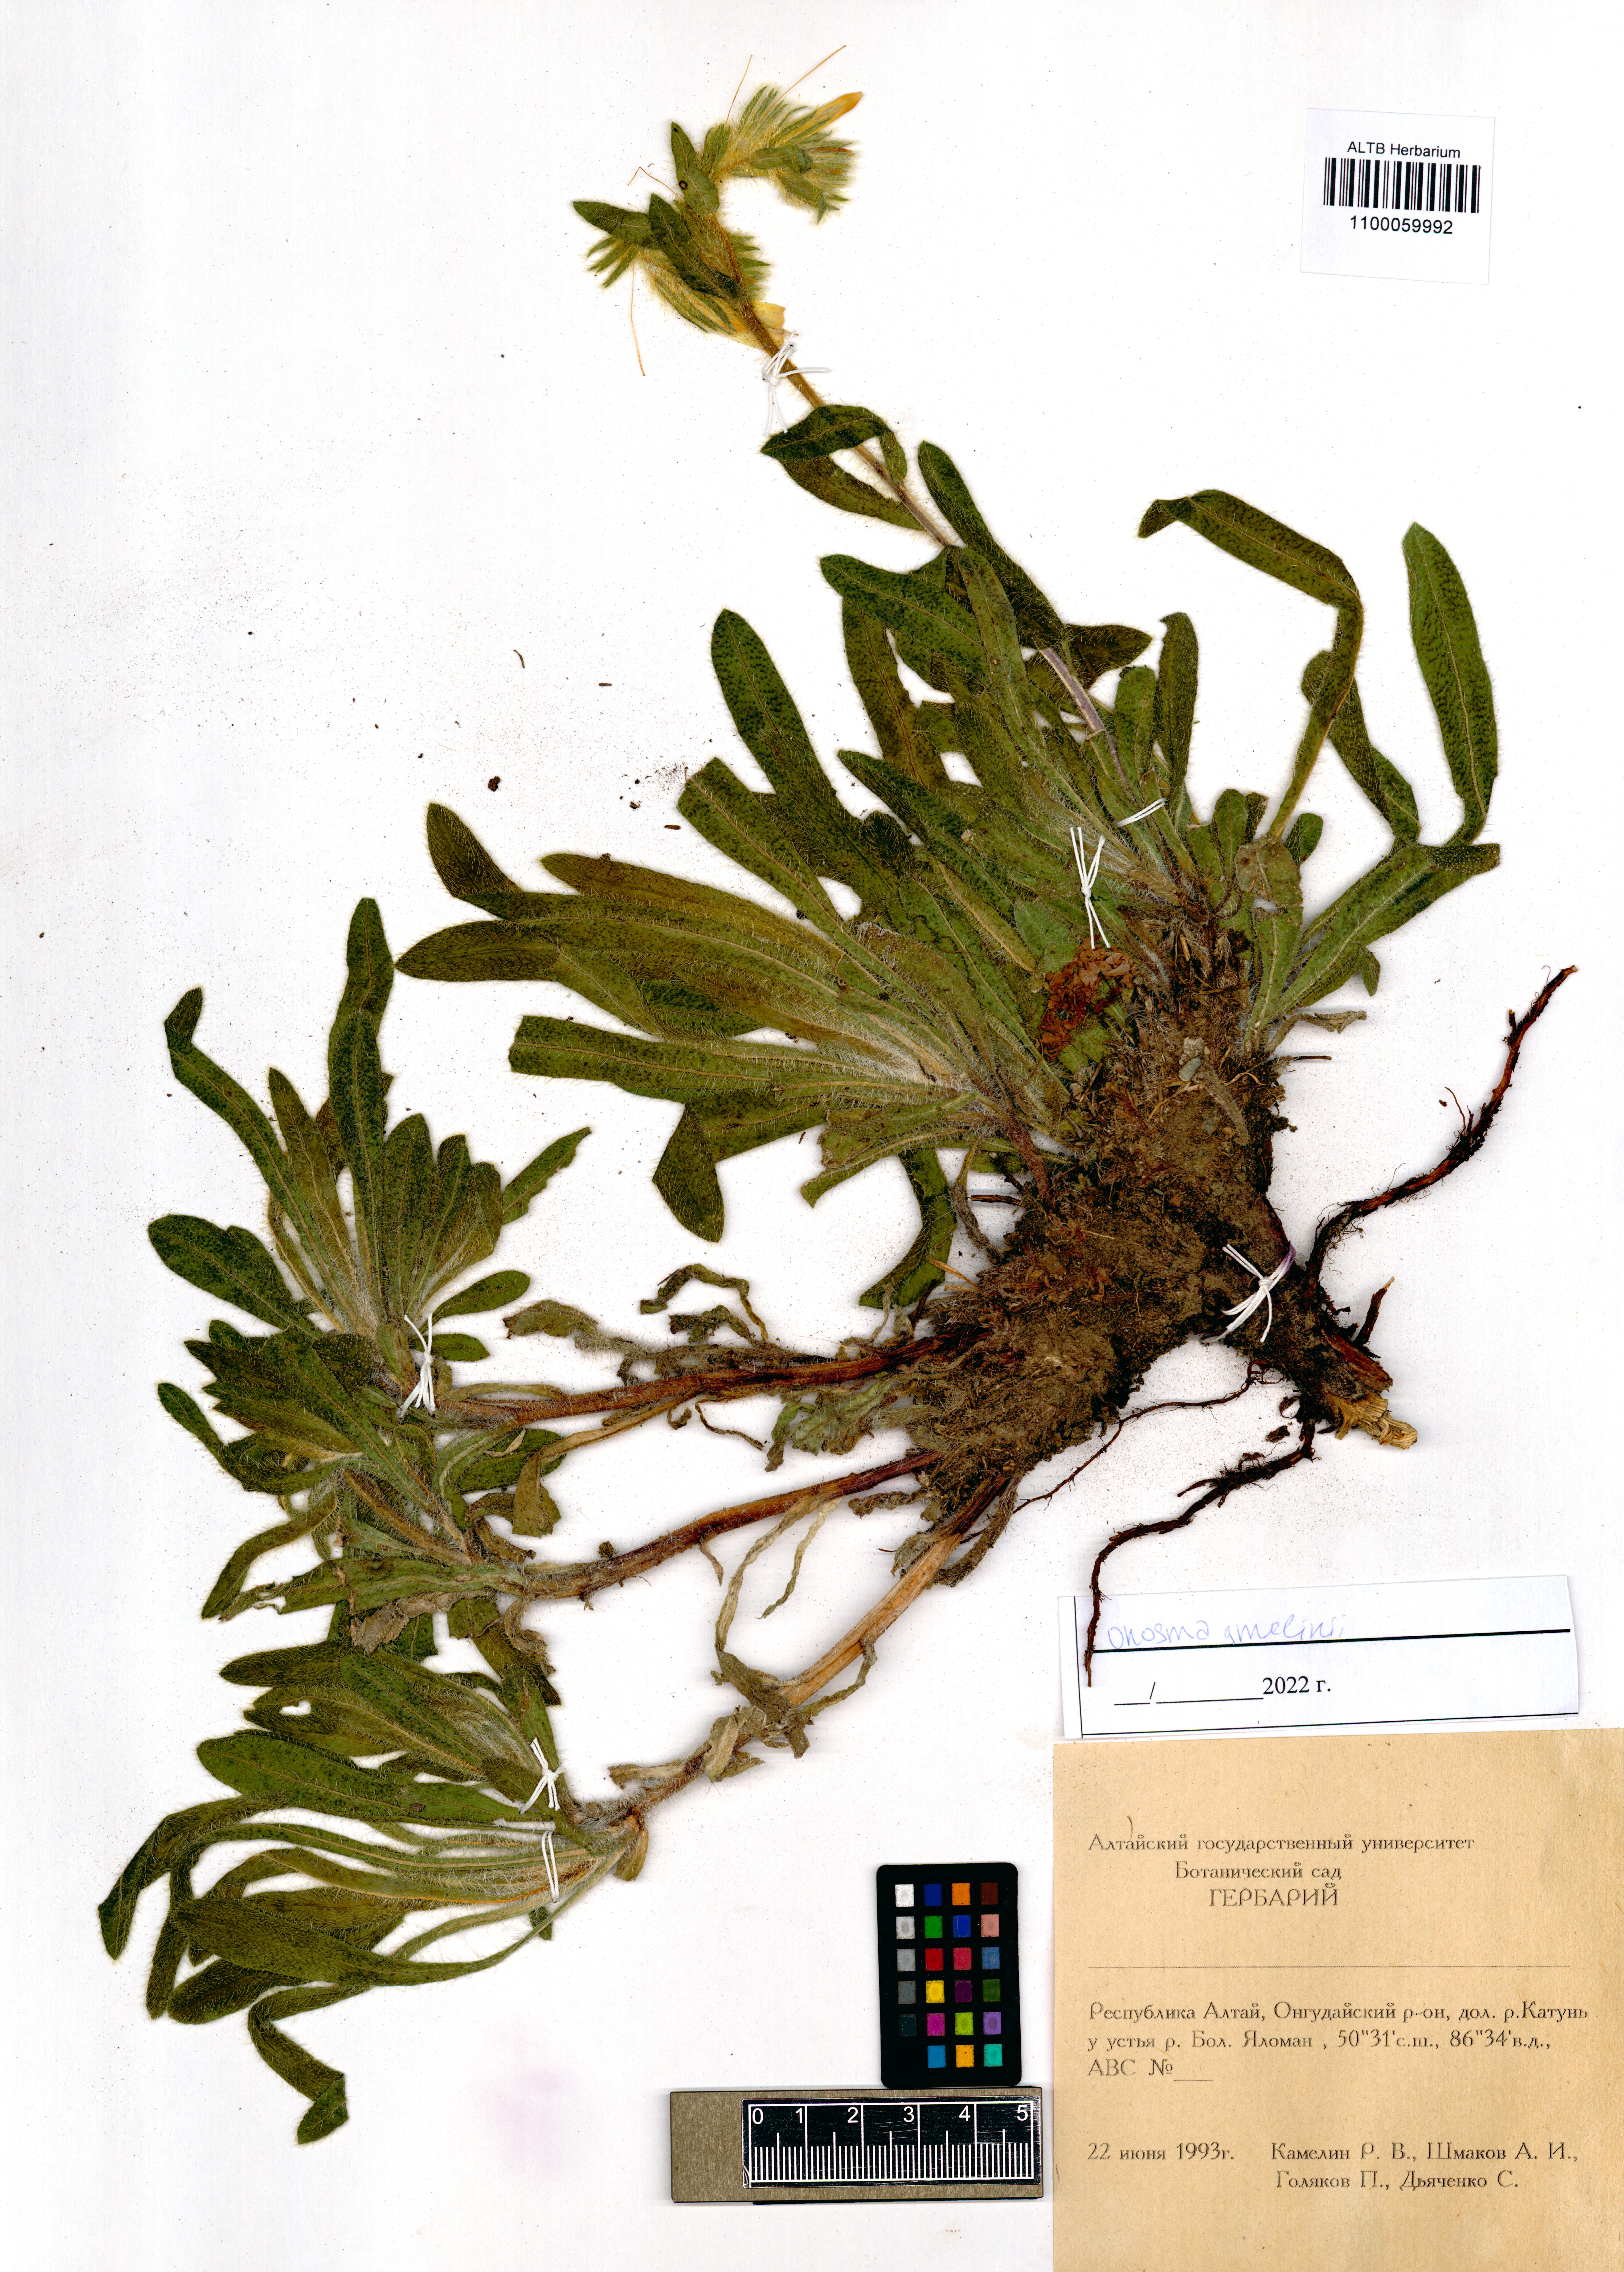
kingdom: Plantae
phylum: Tracheophyta
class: Magnoliopsida
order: Boraginales
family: Boraginaceae
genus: Onosma
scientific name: Onosma gmelinii
